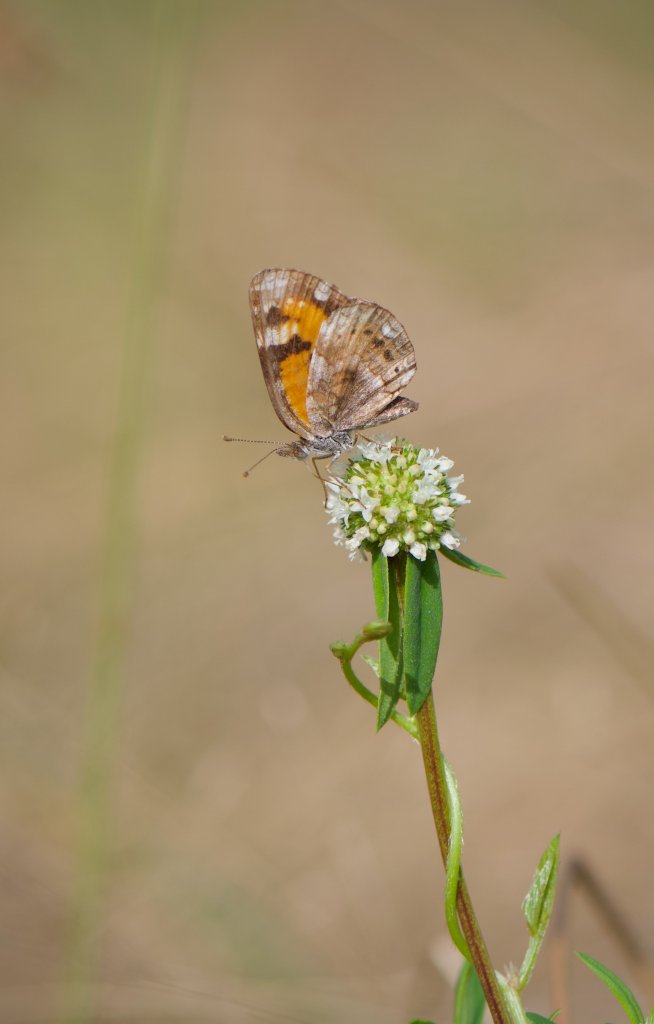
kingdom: Animalia
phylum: Arthropoda
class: Insecta
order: Lepidoptera
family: Nymphalidae
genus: Phyciodes
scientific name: Phyciodes phaon
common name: Phaon Crescent
